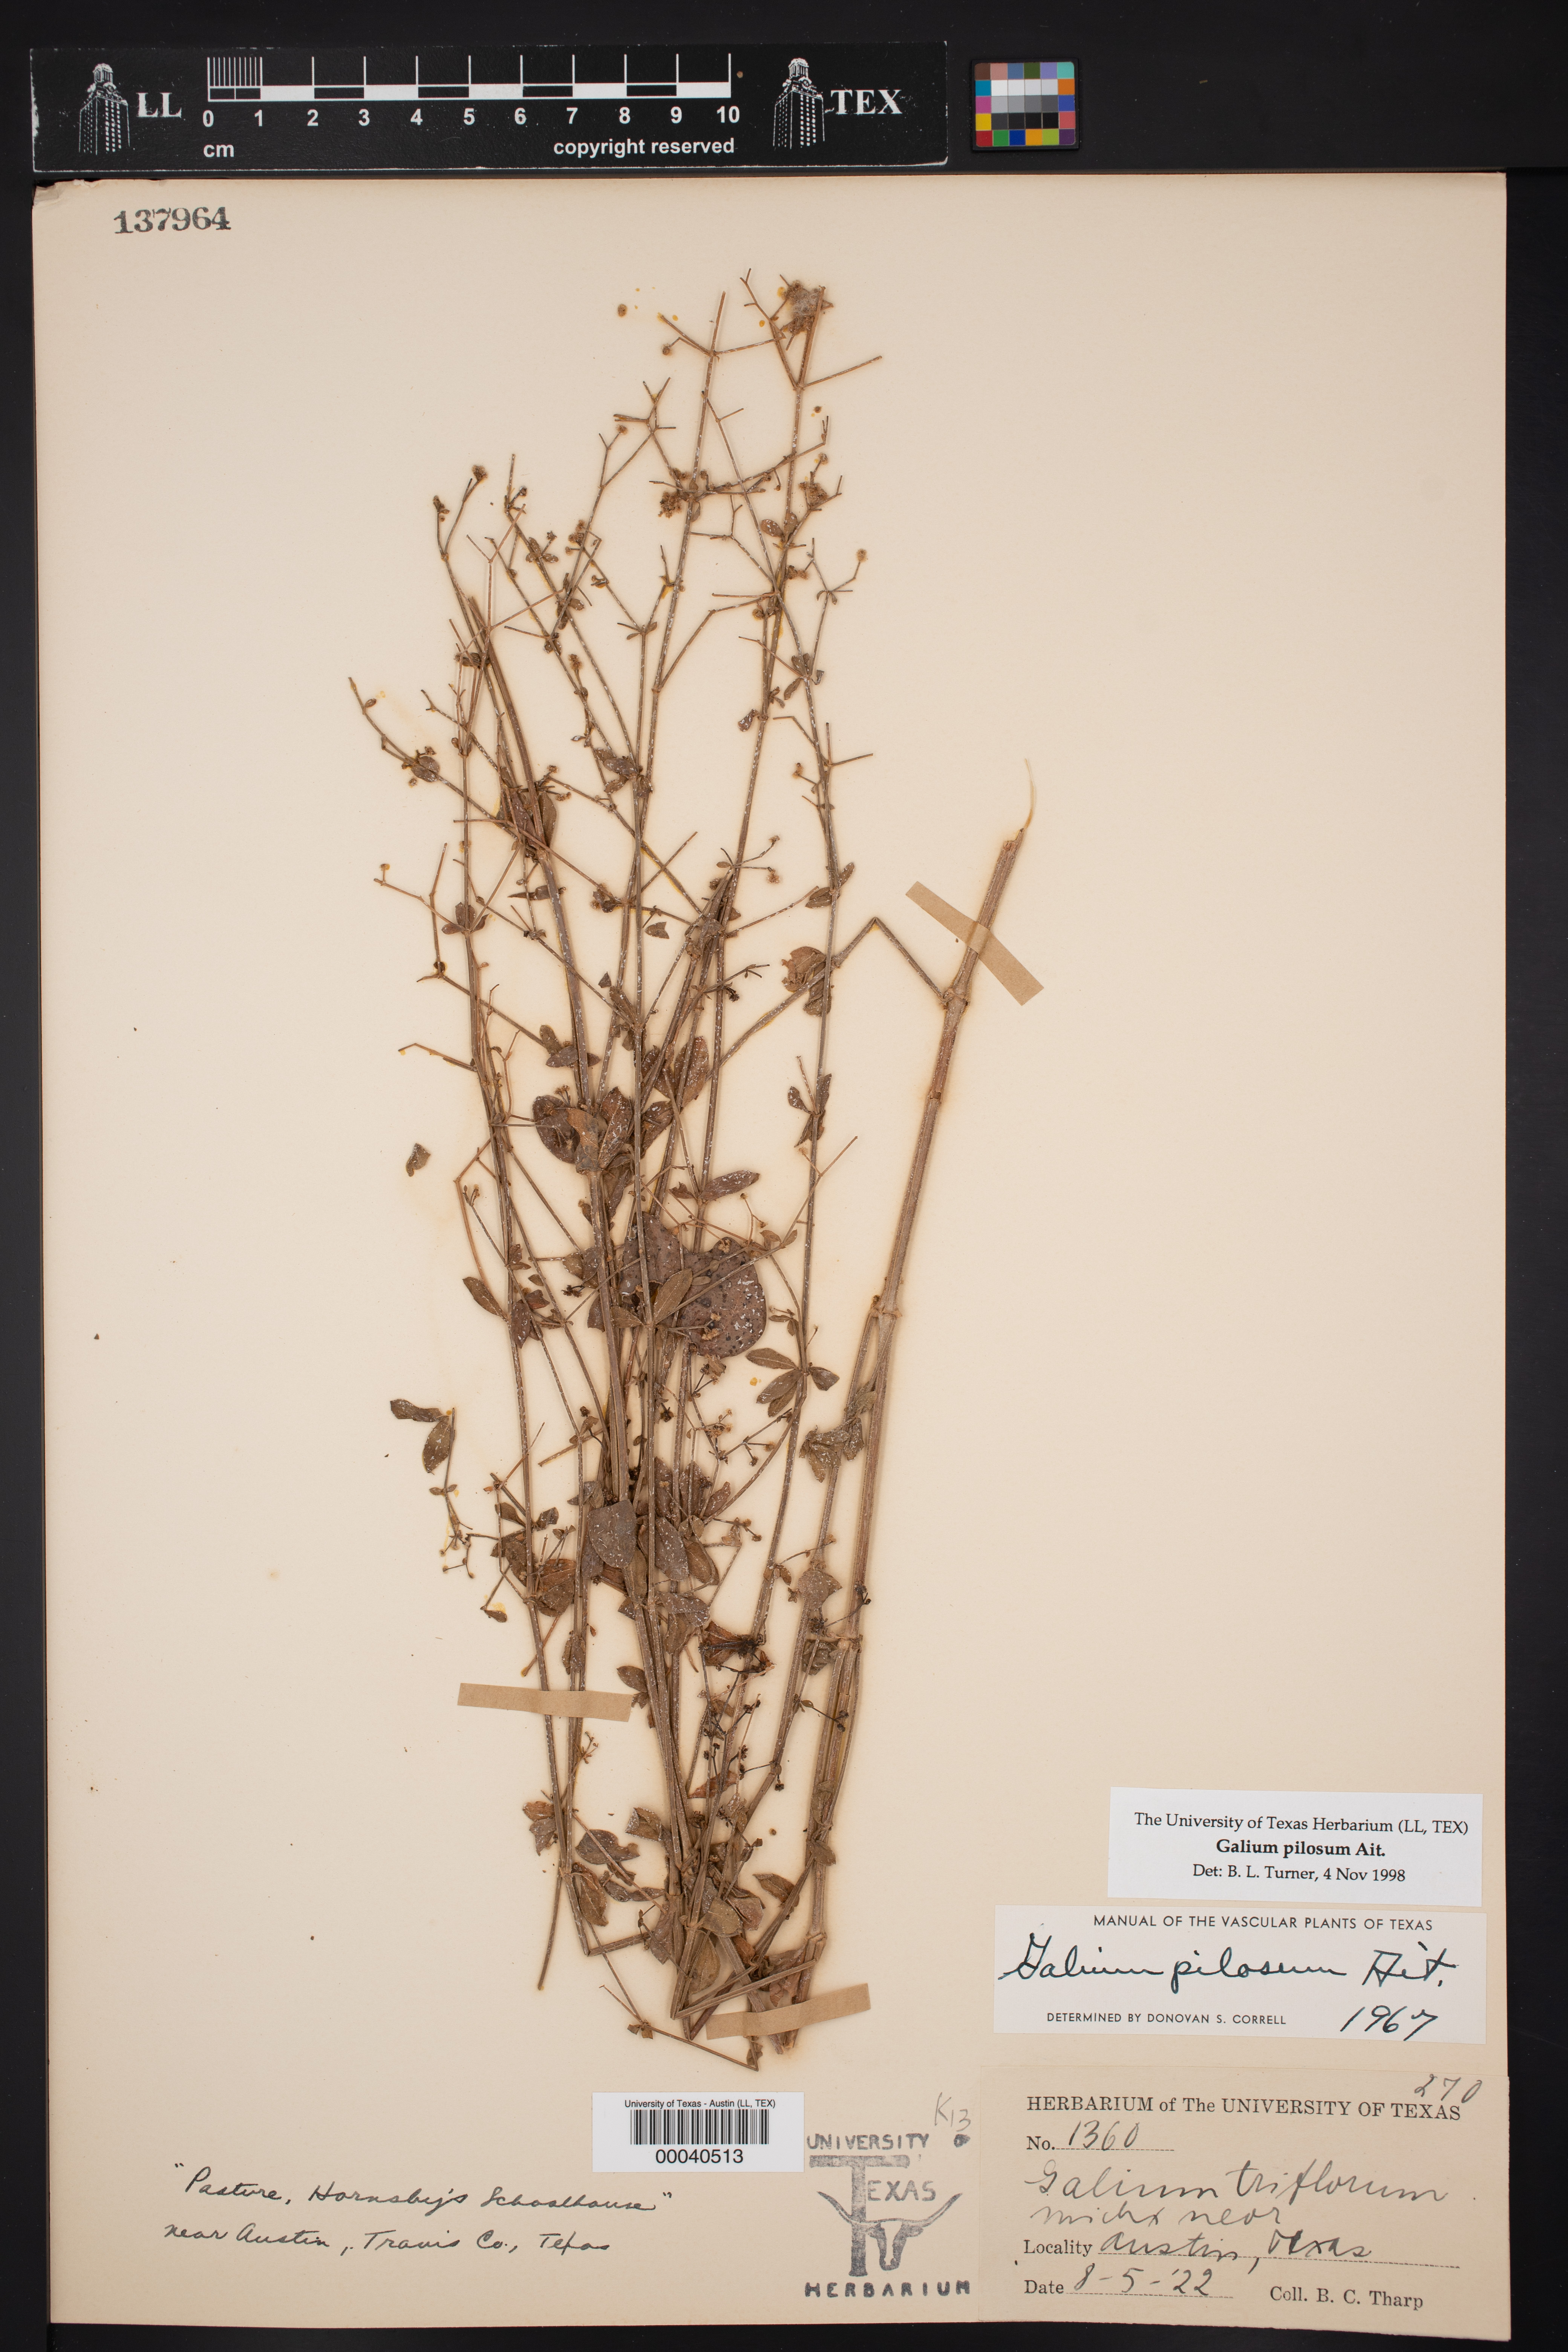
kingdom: Plantae
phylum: Tracheophyta
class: Magnoliopsida
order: Gentianales
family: Rubiaceae
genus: Galium
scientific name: Galium pilosum
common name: Hairy bedstraw
